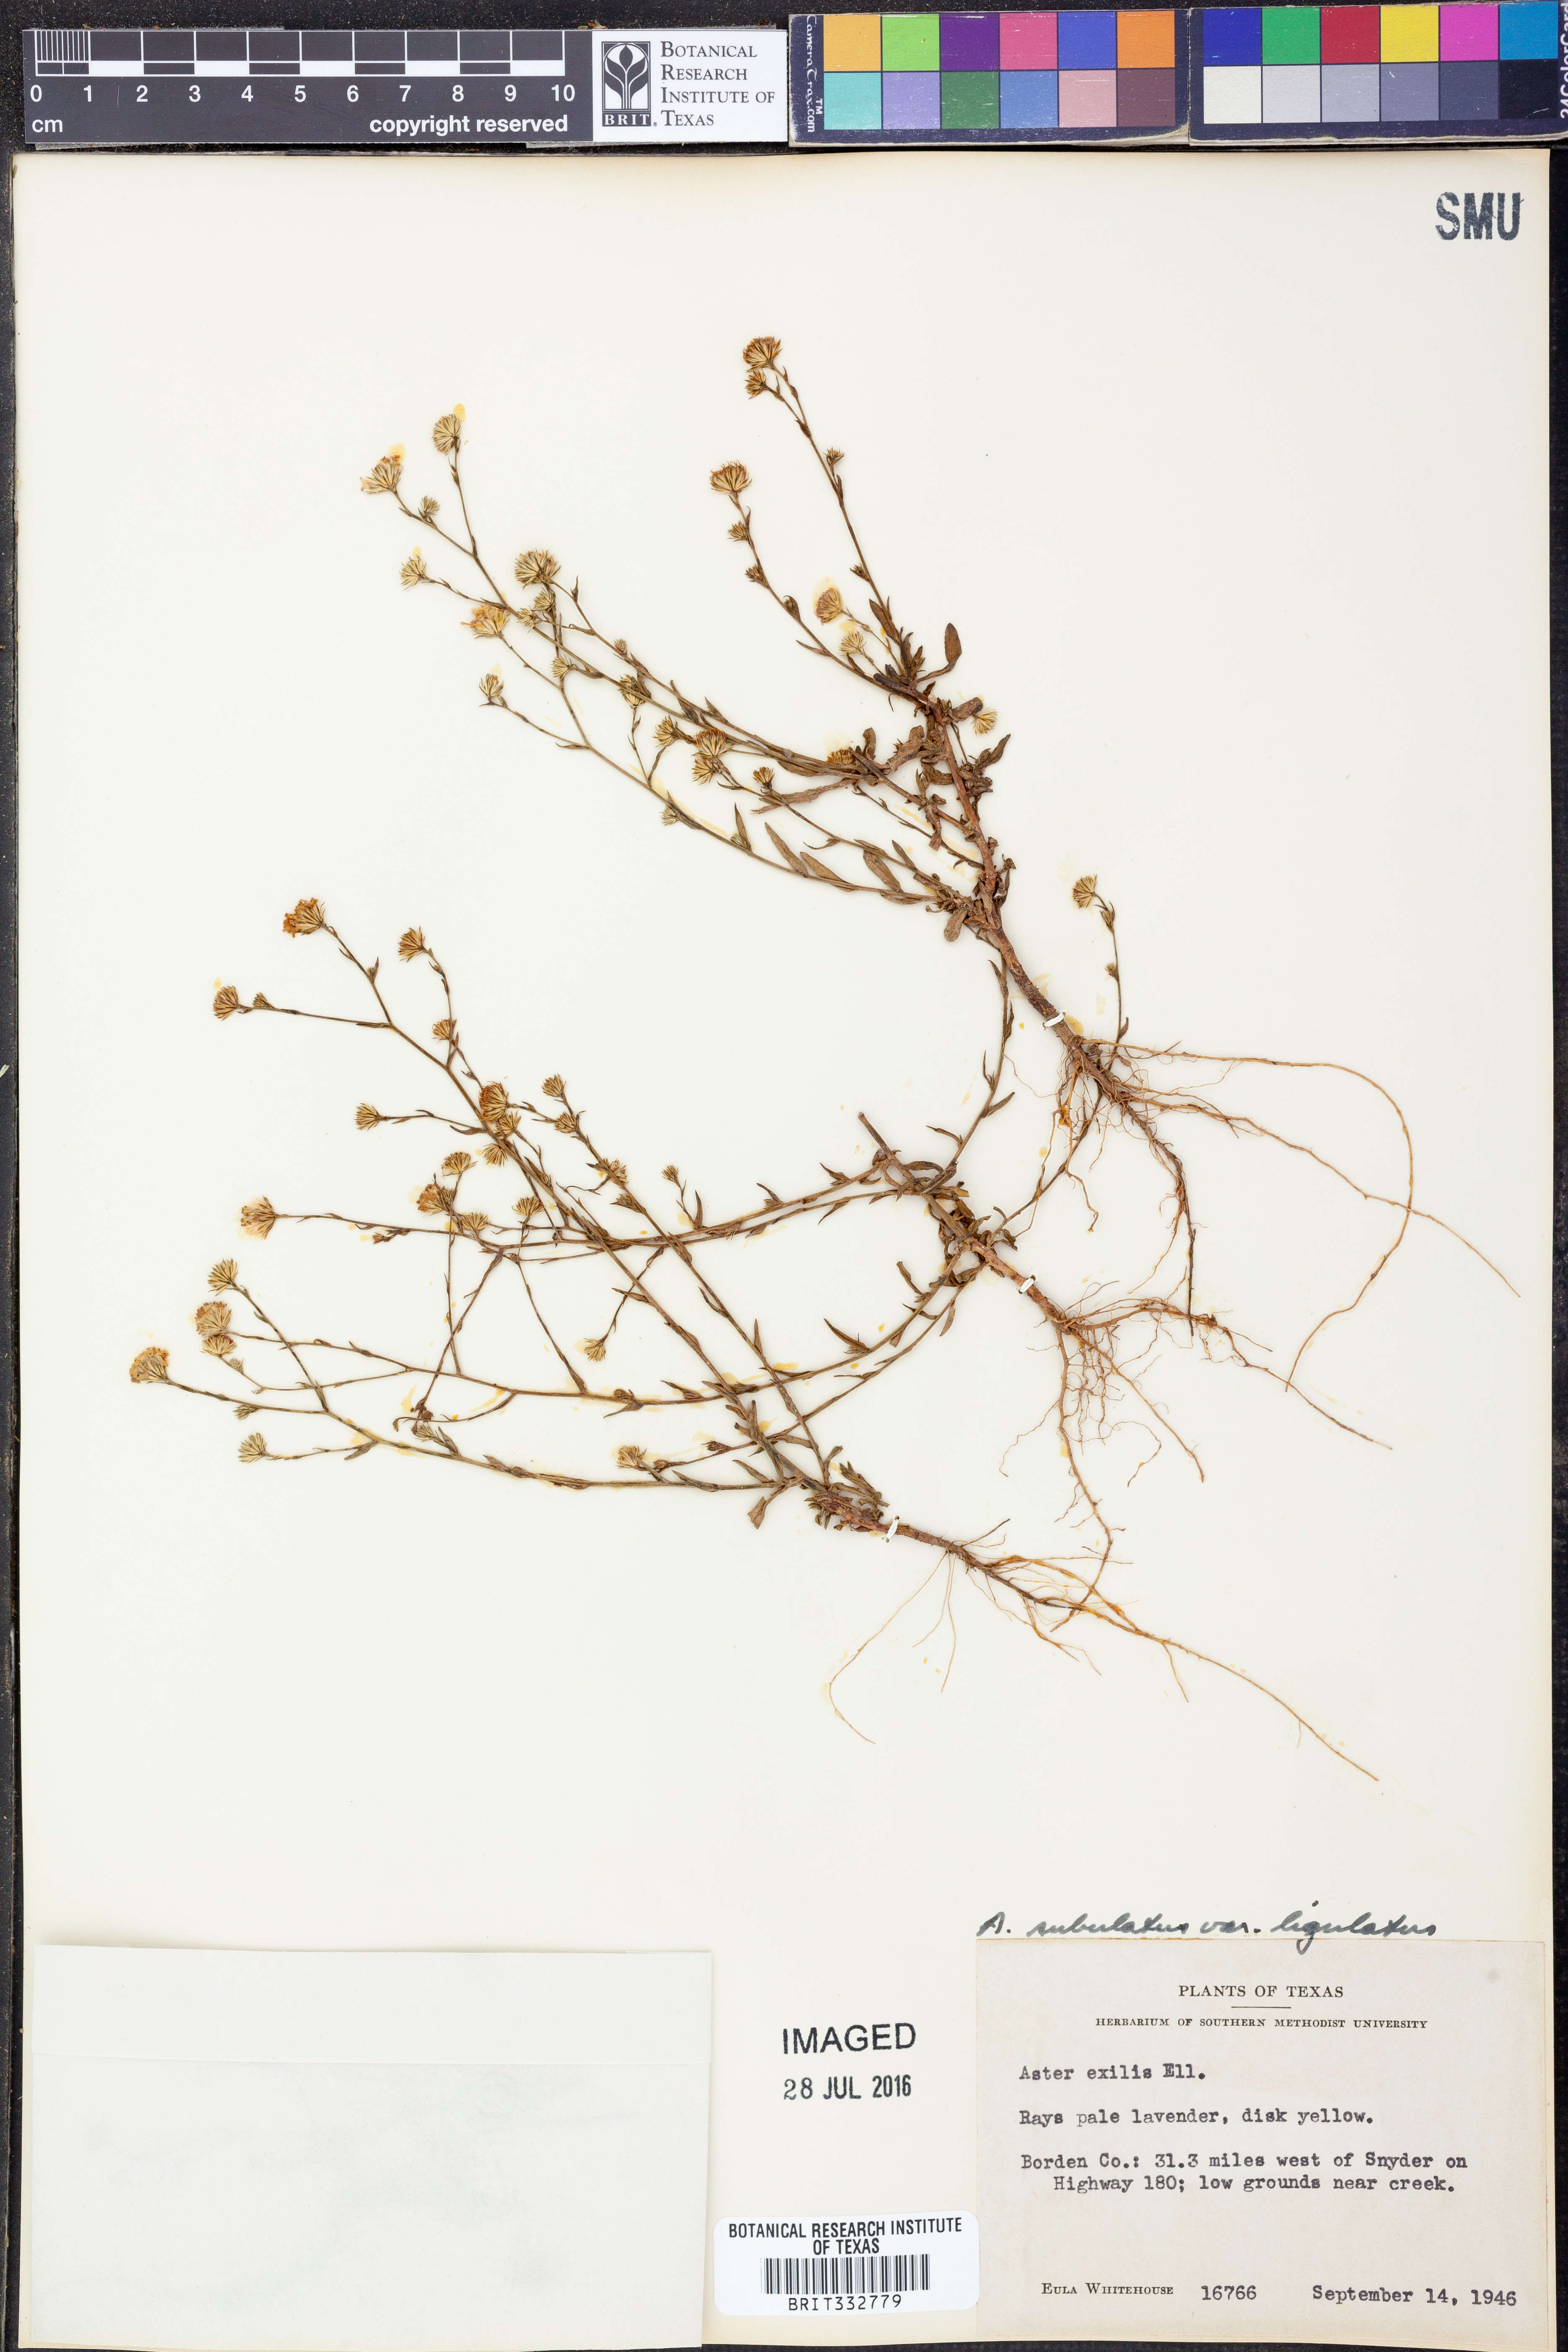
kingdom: Plantae
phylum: Tracheophyta
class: Magnoliopsida
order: Asterales
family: Asteraceae
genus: Symphyotrichum
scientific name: Symphyotrichum divaricatum
